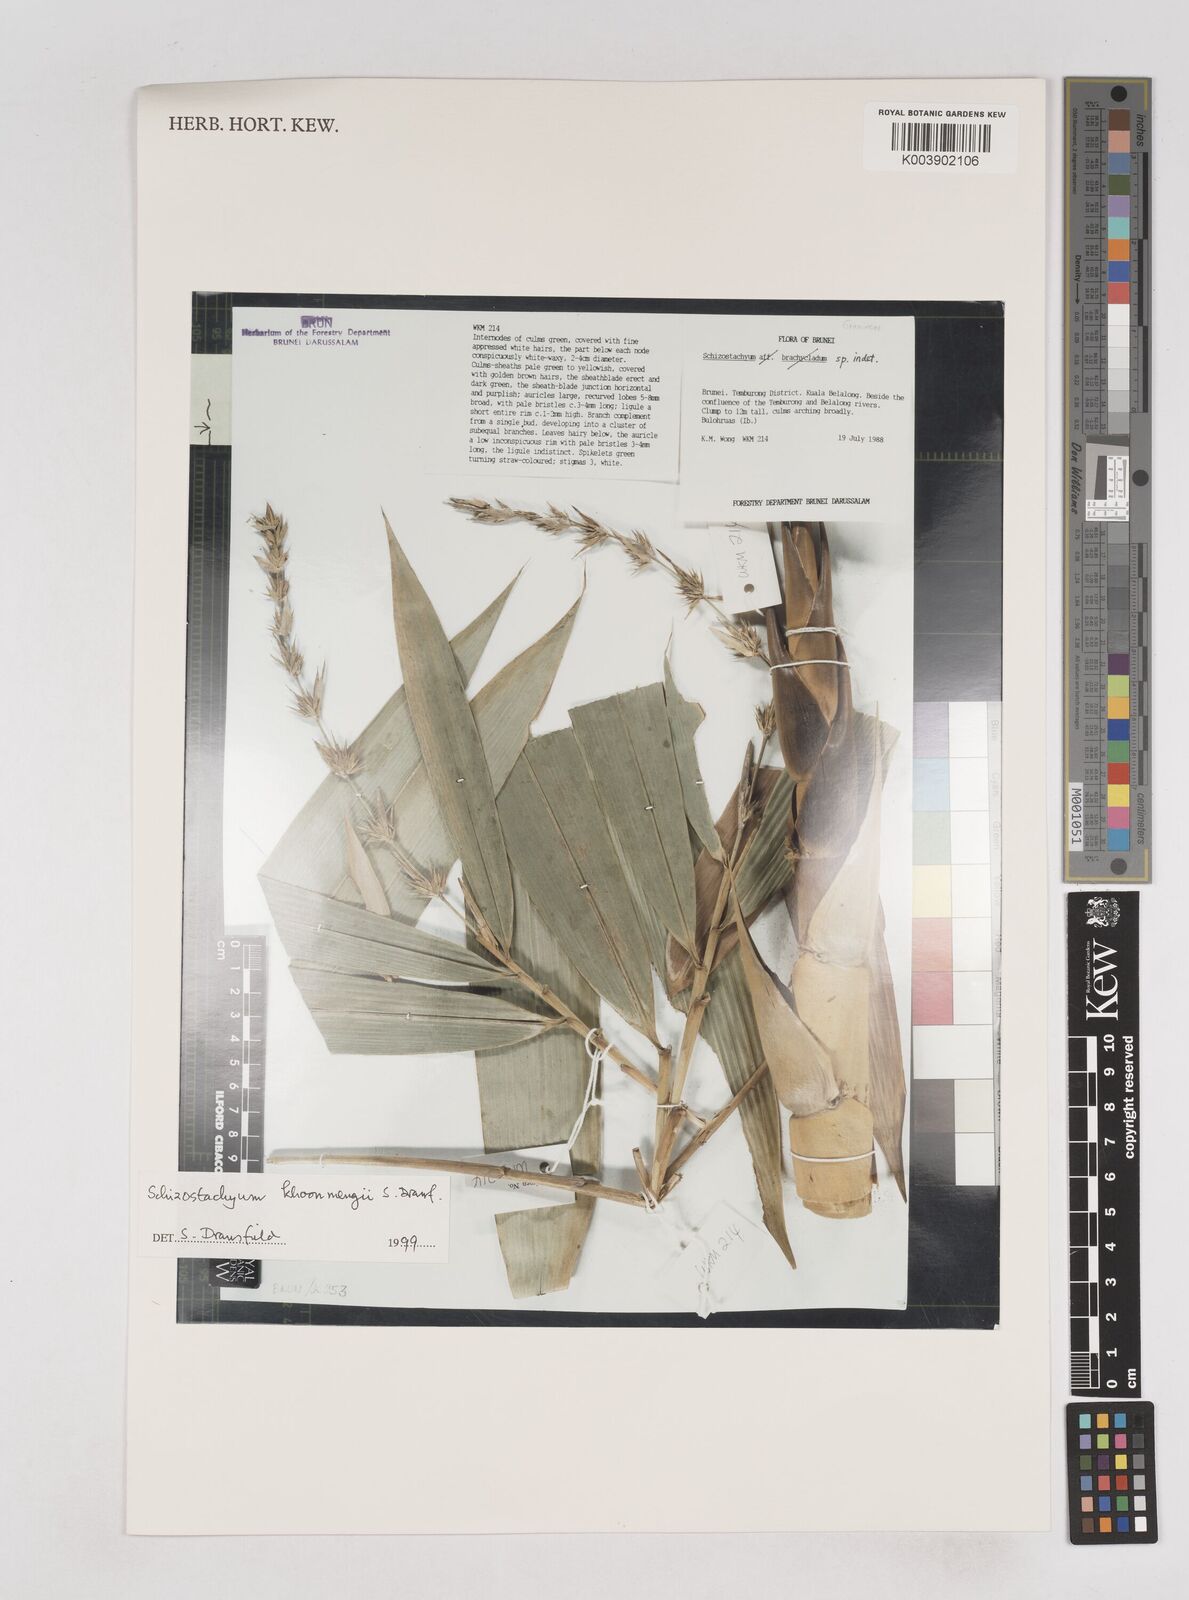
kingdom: Plantae
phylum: Tracheophyta
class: Liliopsida
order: Poales
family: Poaceae
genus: Schizostachyum
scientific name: Schizostachyum khoonmengii
